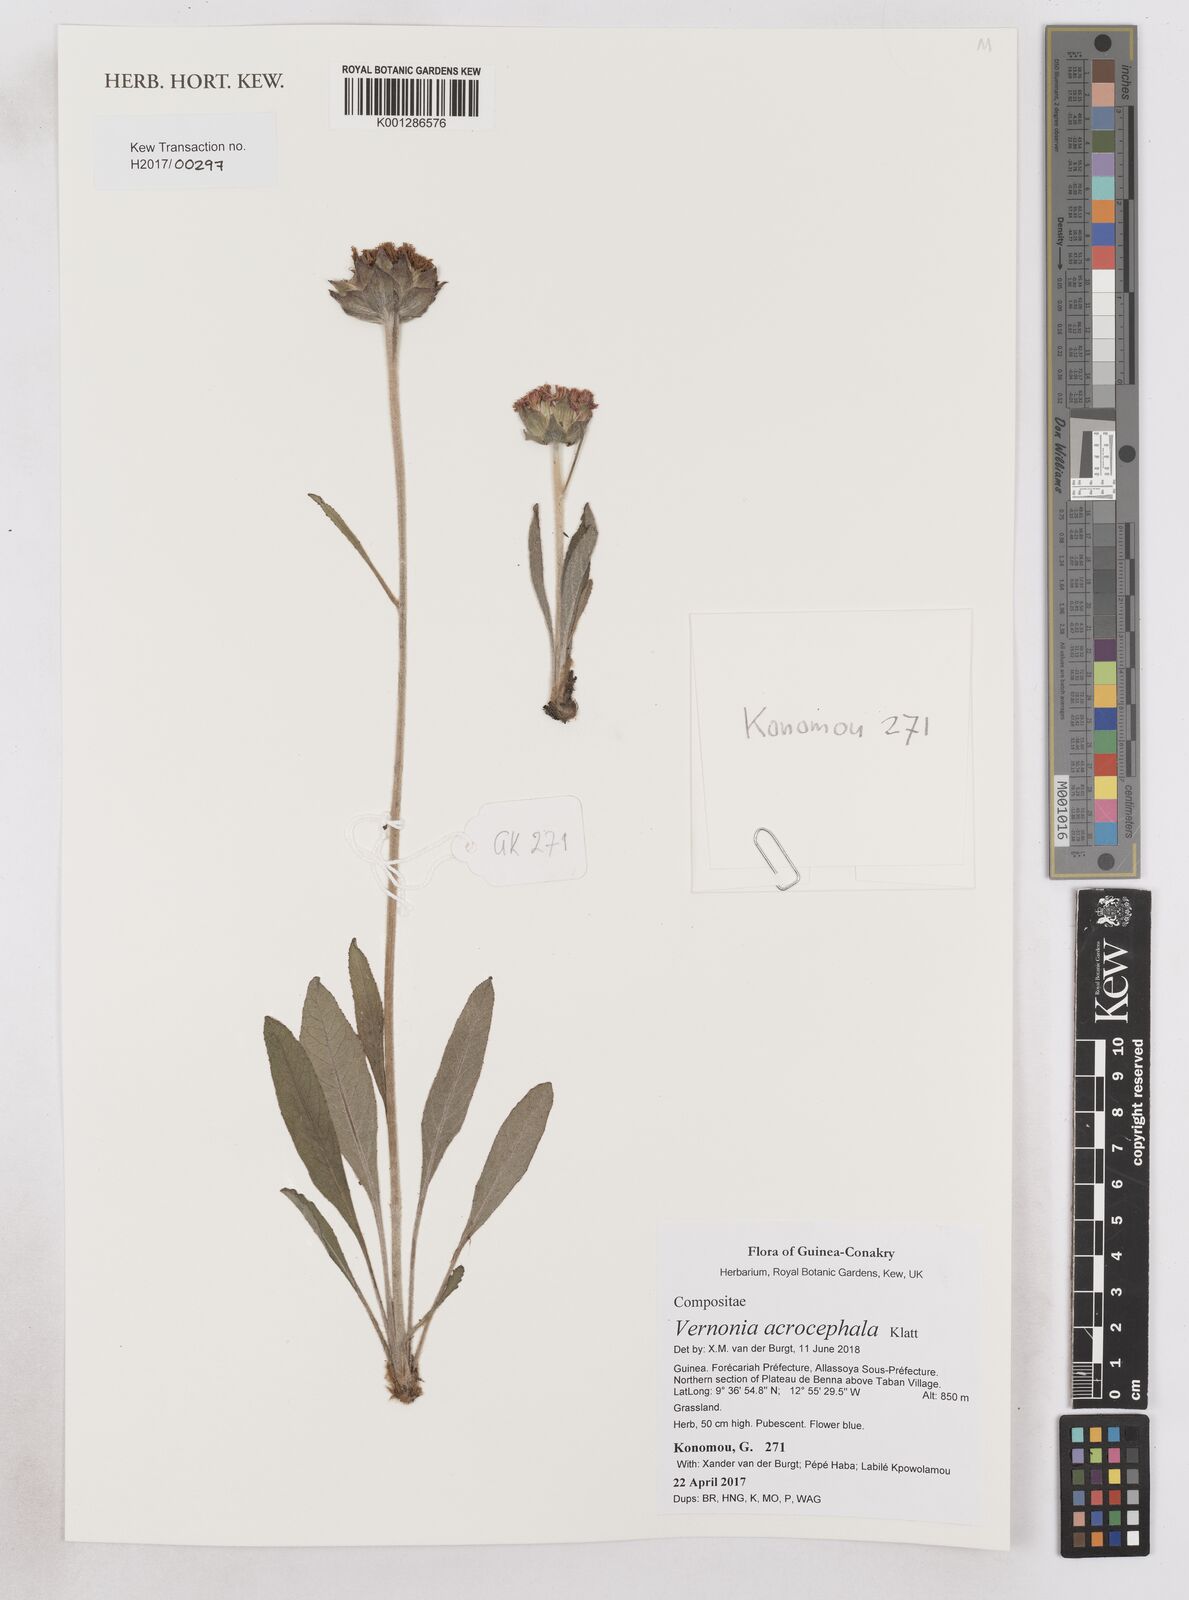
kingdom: Plantae
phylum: Tracheophyta
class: Magnoliopsida
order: Asterales
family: Asteraceae
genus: Vernonella
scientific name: Vernonella acrocephala
